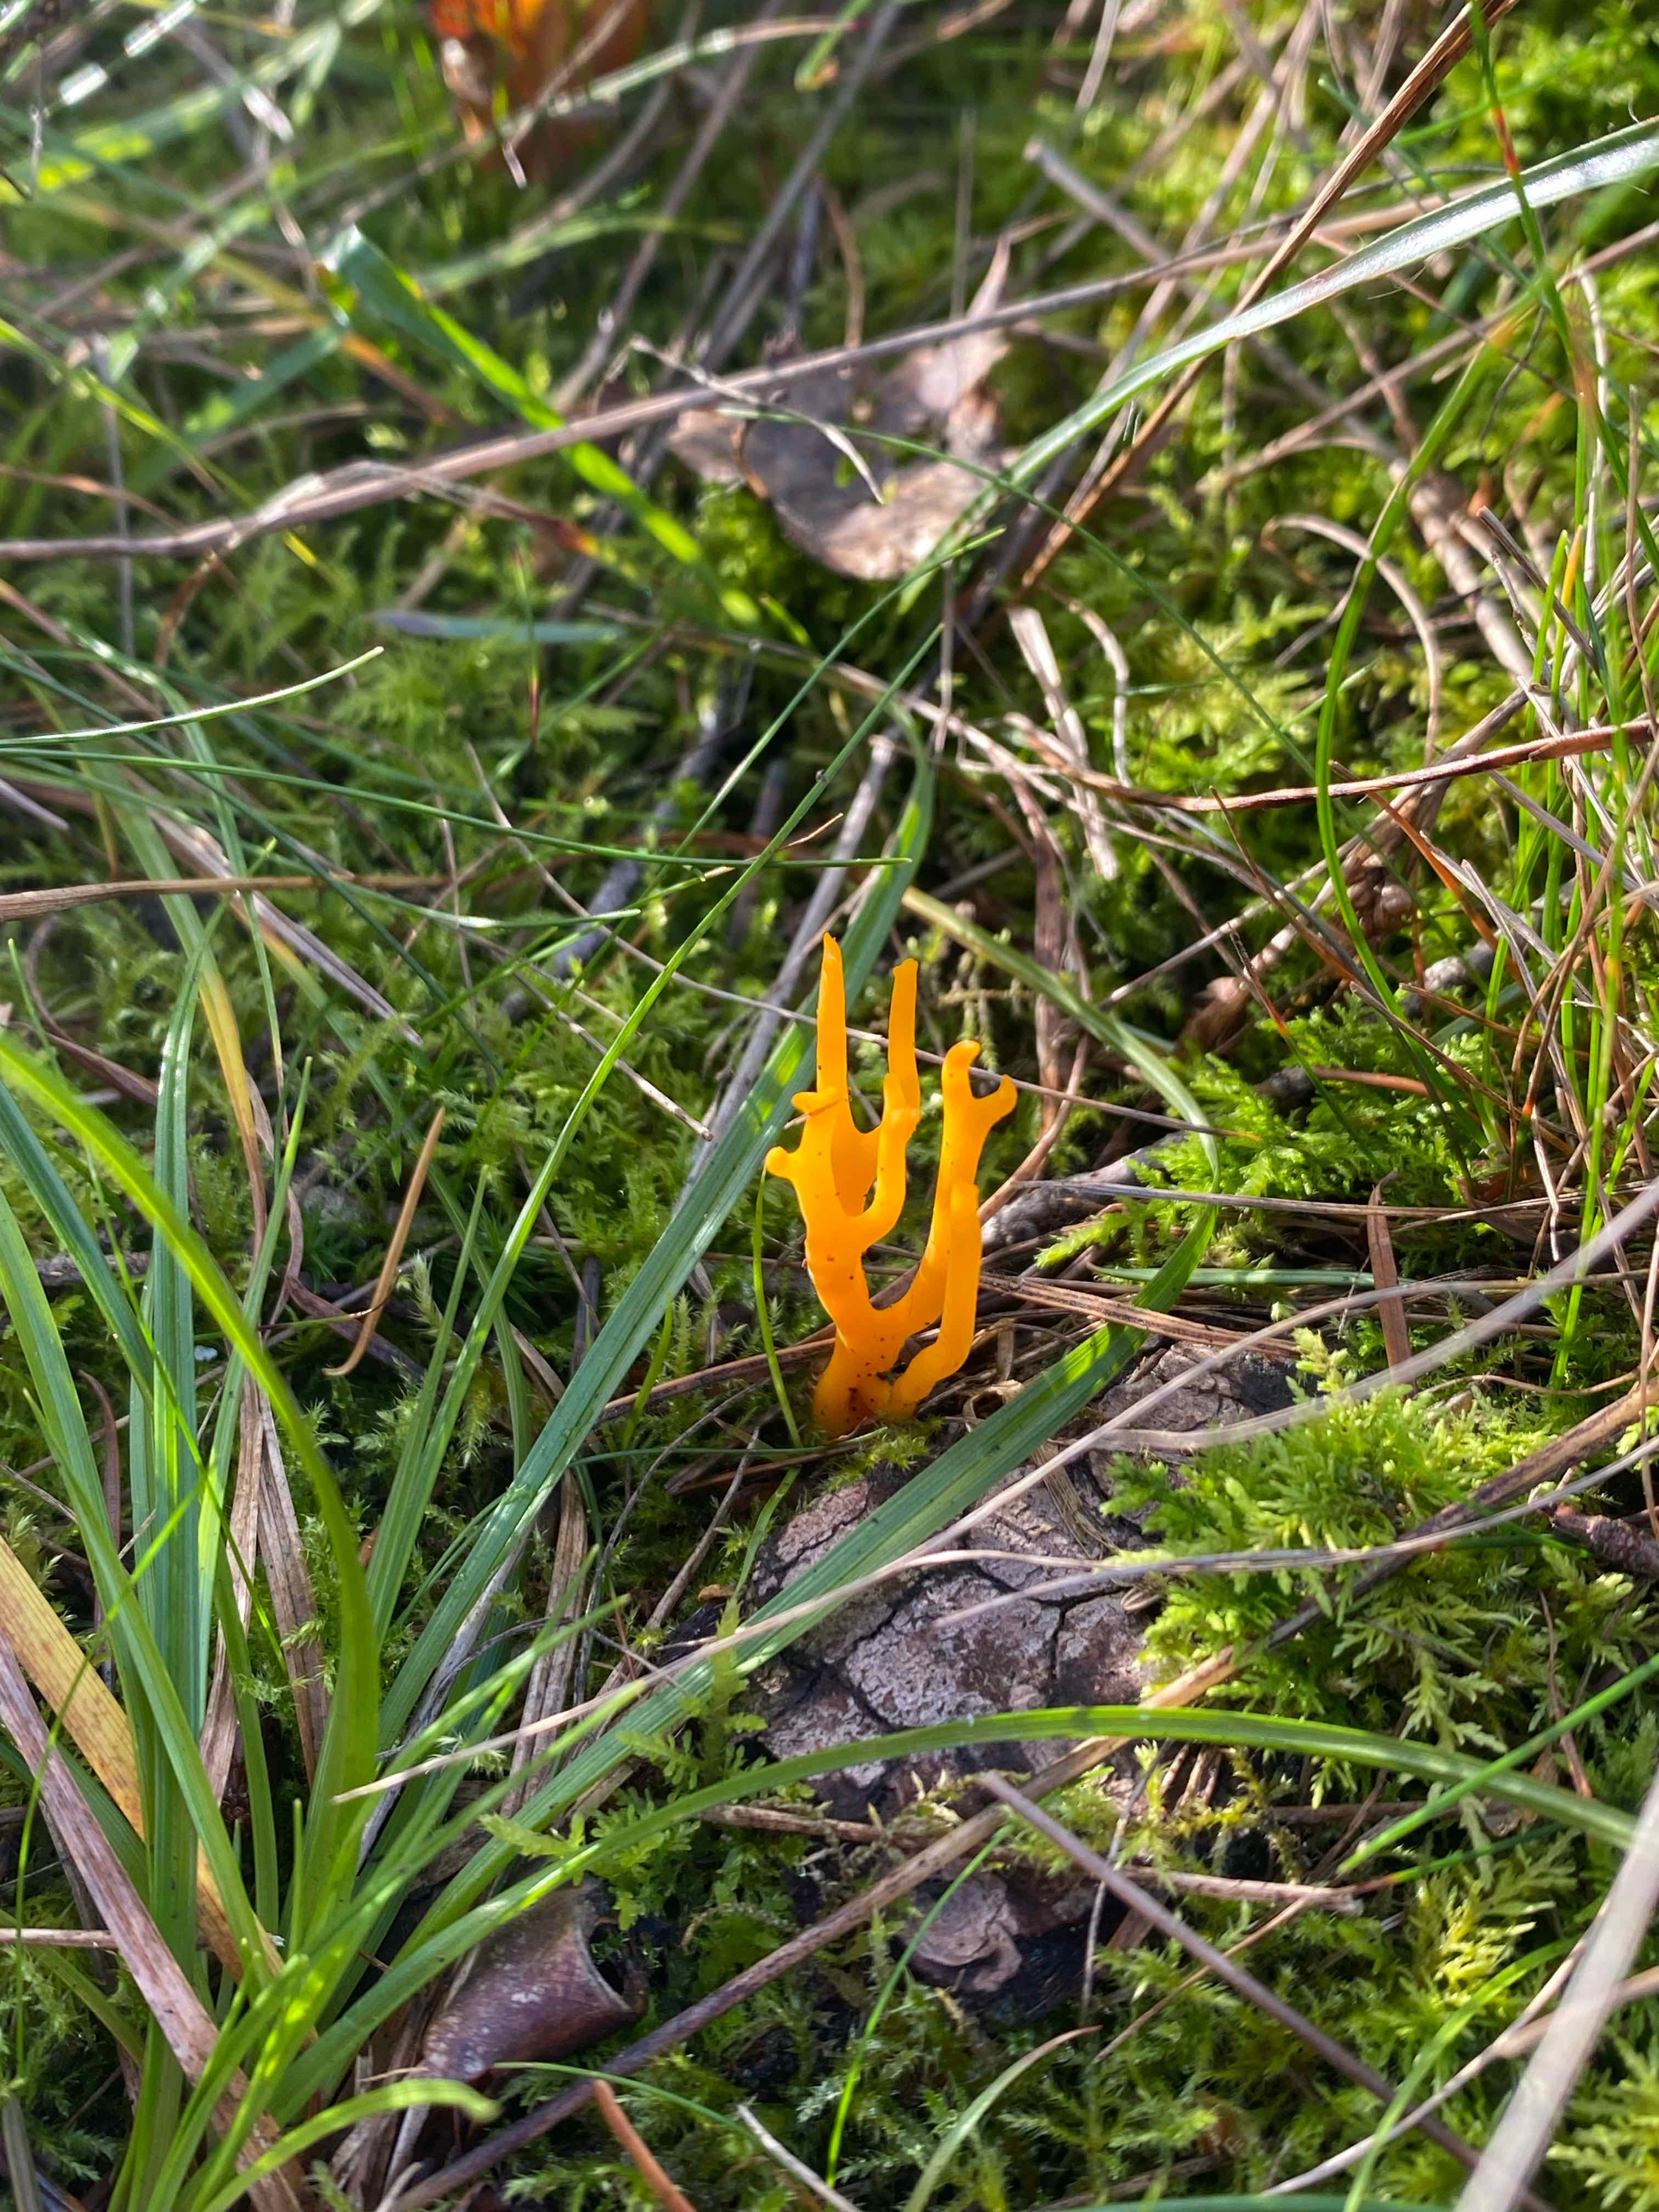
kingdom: Fungi
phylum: Basidiomycota
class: Dacrymycetes
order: Dacrymycetales
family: Dacrymycetaceae
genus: Calocera
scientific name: Calocera viscosa
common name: almindelig guldgaffel
